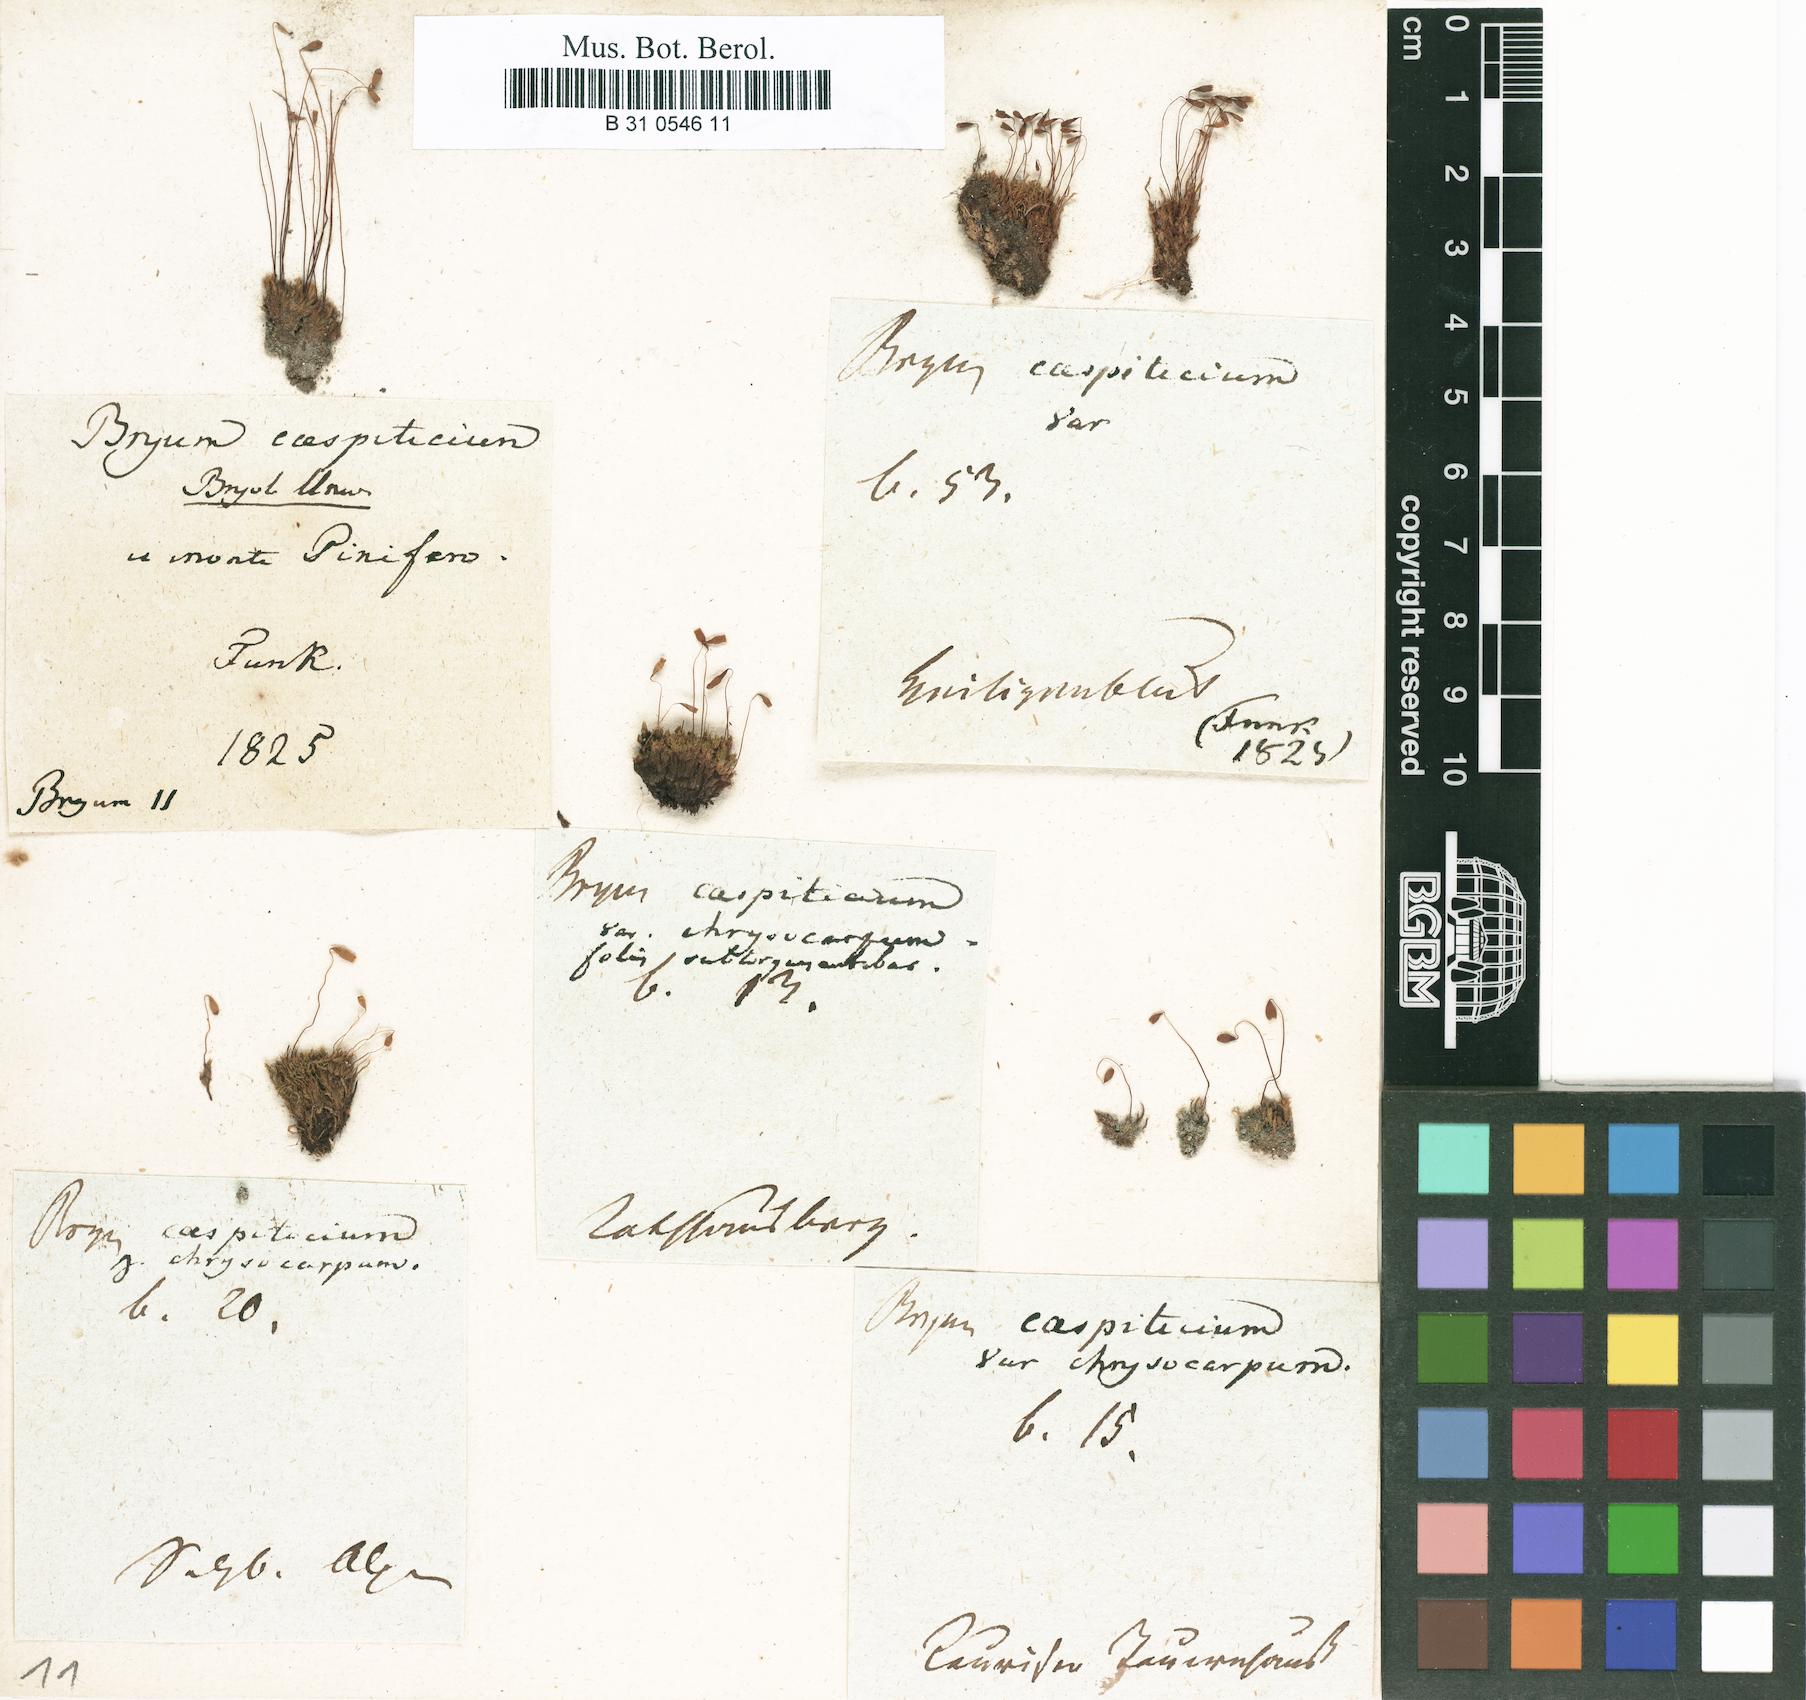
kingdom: Plantae
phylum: Bryophyta
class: Bryopsida
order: Bryales
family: Bryaceae
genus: Gemmabryum
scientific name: Gemmabryum caespiticium
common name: Handbell moss
